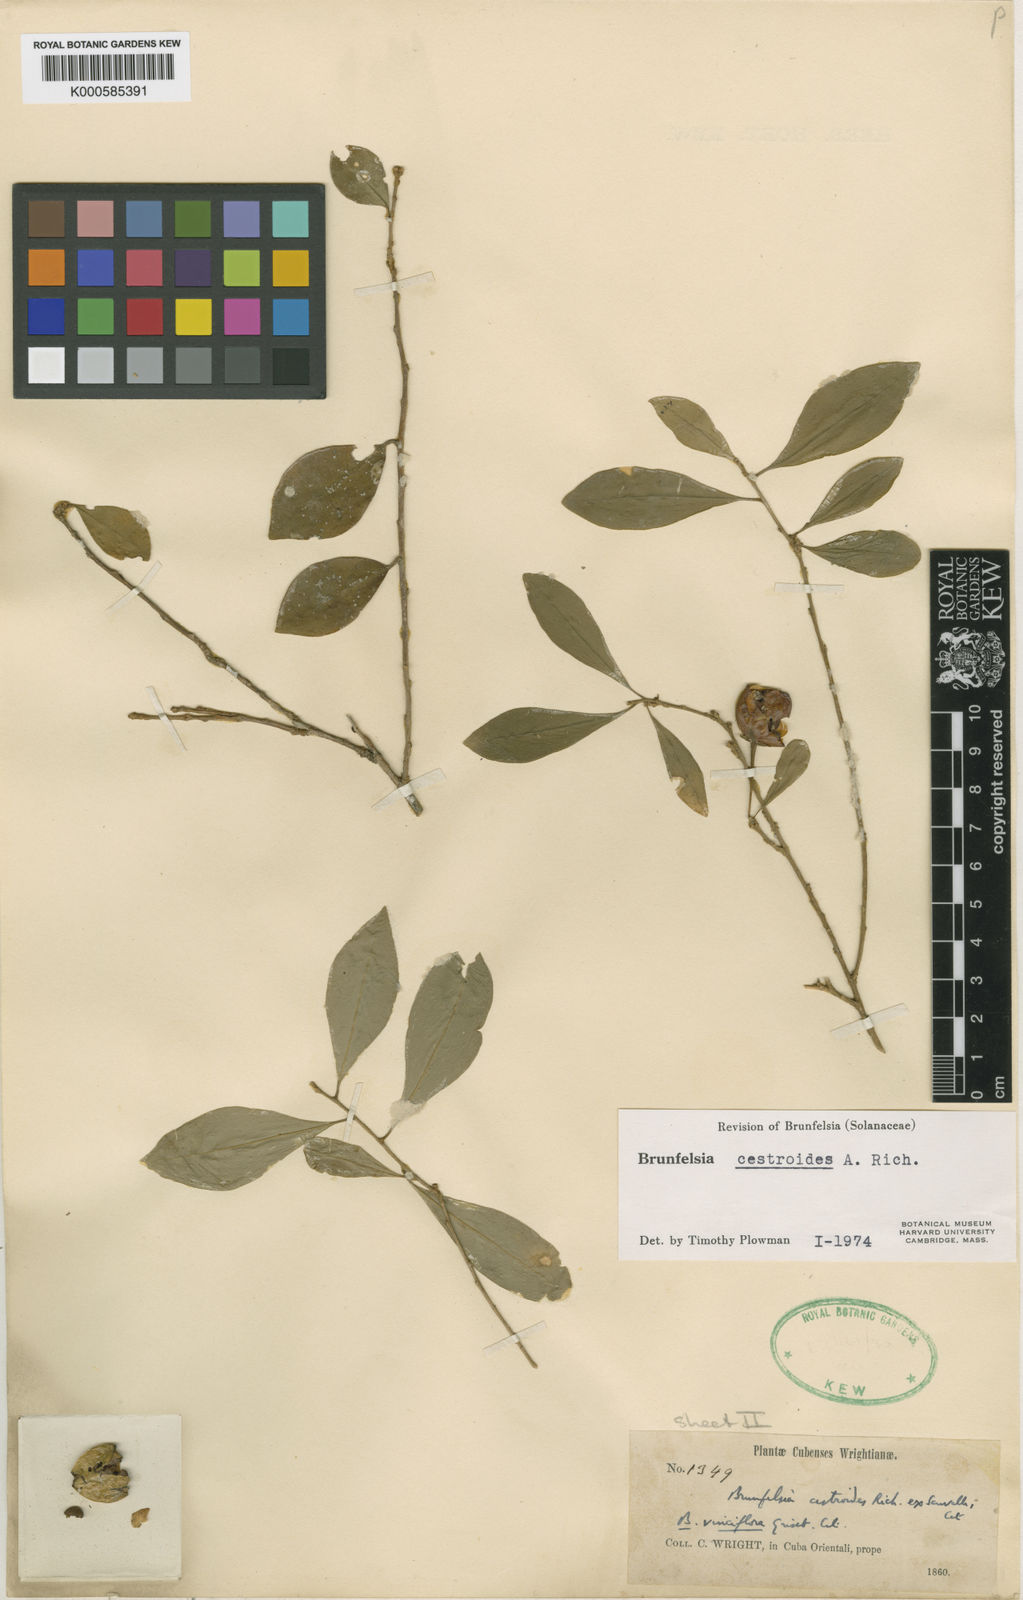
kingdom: Plantae
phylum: Tracheophyta
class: Magnoliopsida
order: Solanales
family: Solanaceae
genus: Brunfelsia
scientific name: Brunfelsia cestroides
